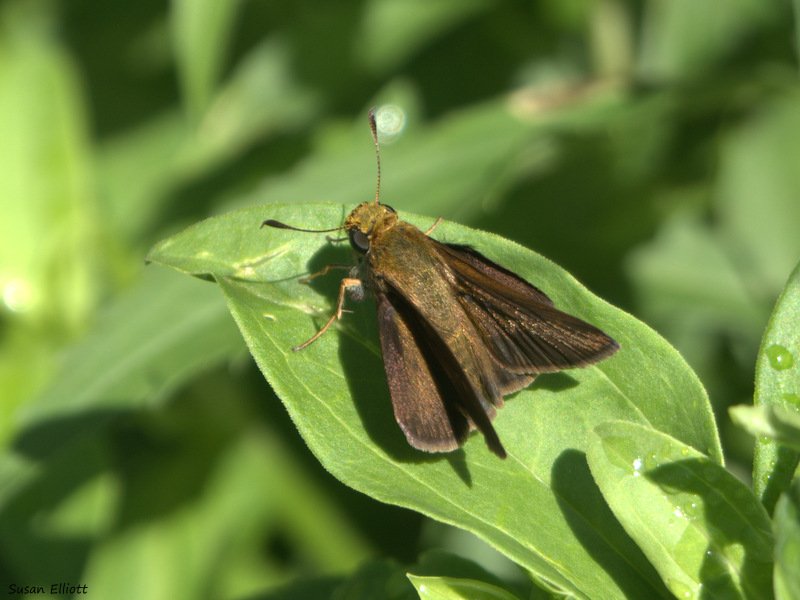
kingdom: Animalia
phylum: Arthropoda
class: Insecta
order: Lepidoptera
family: Hesperiidae
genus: Euphyes
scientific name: Euphyes vestris
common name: Dun Skipper
